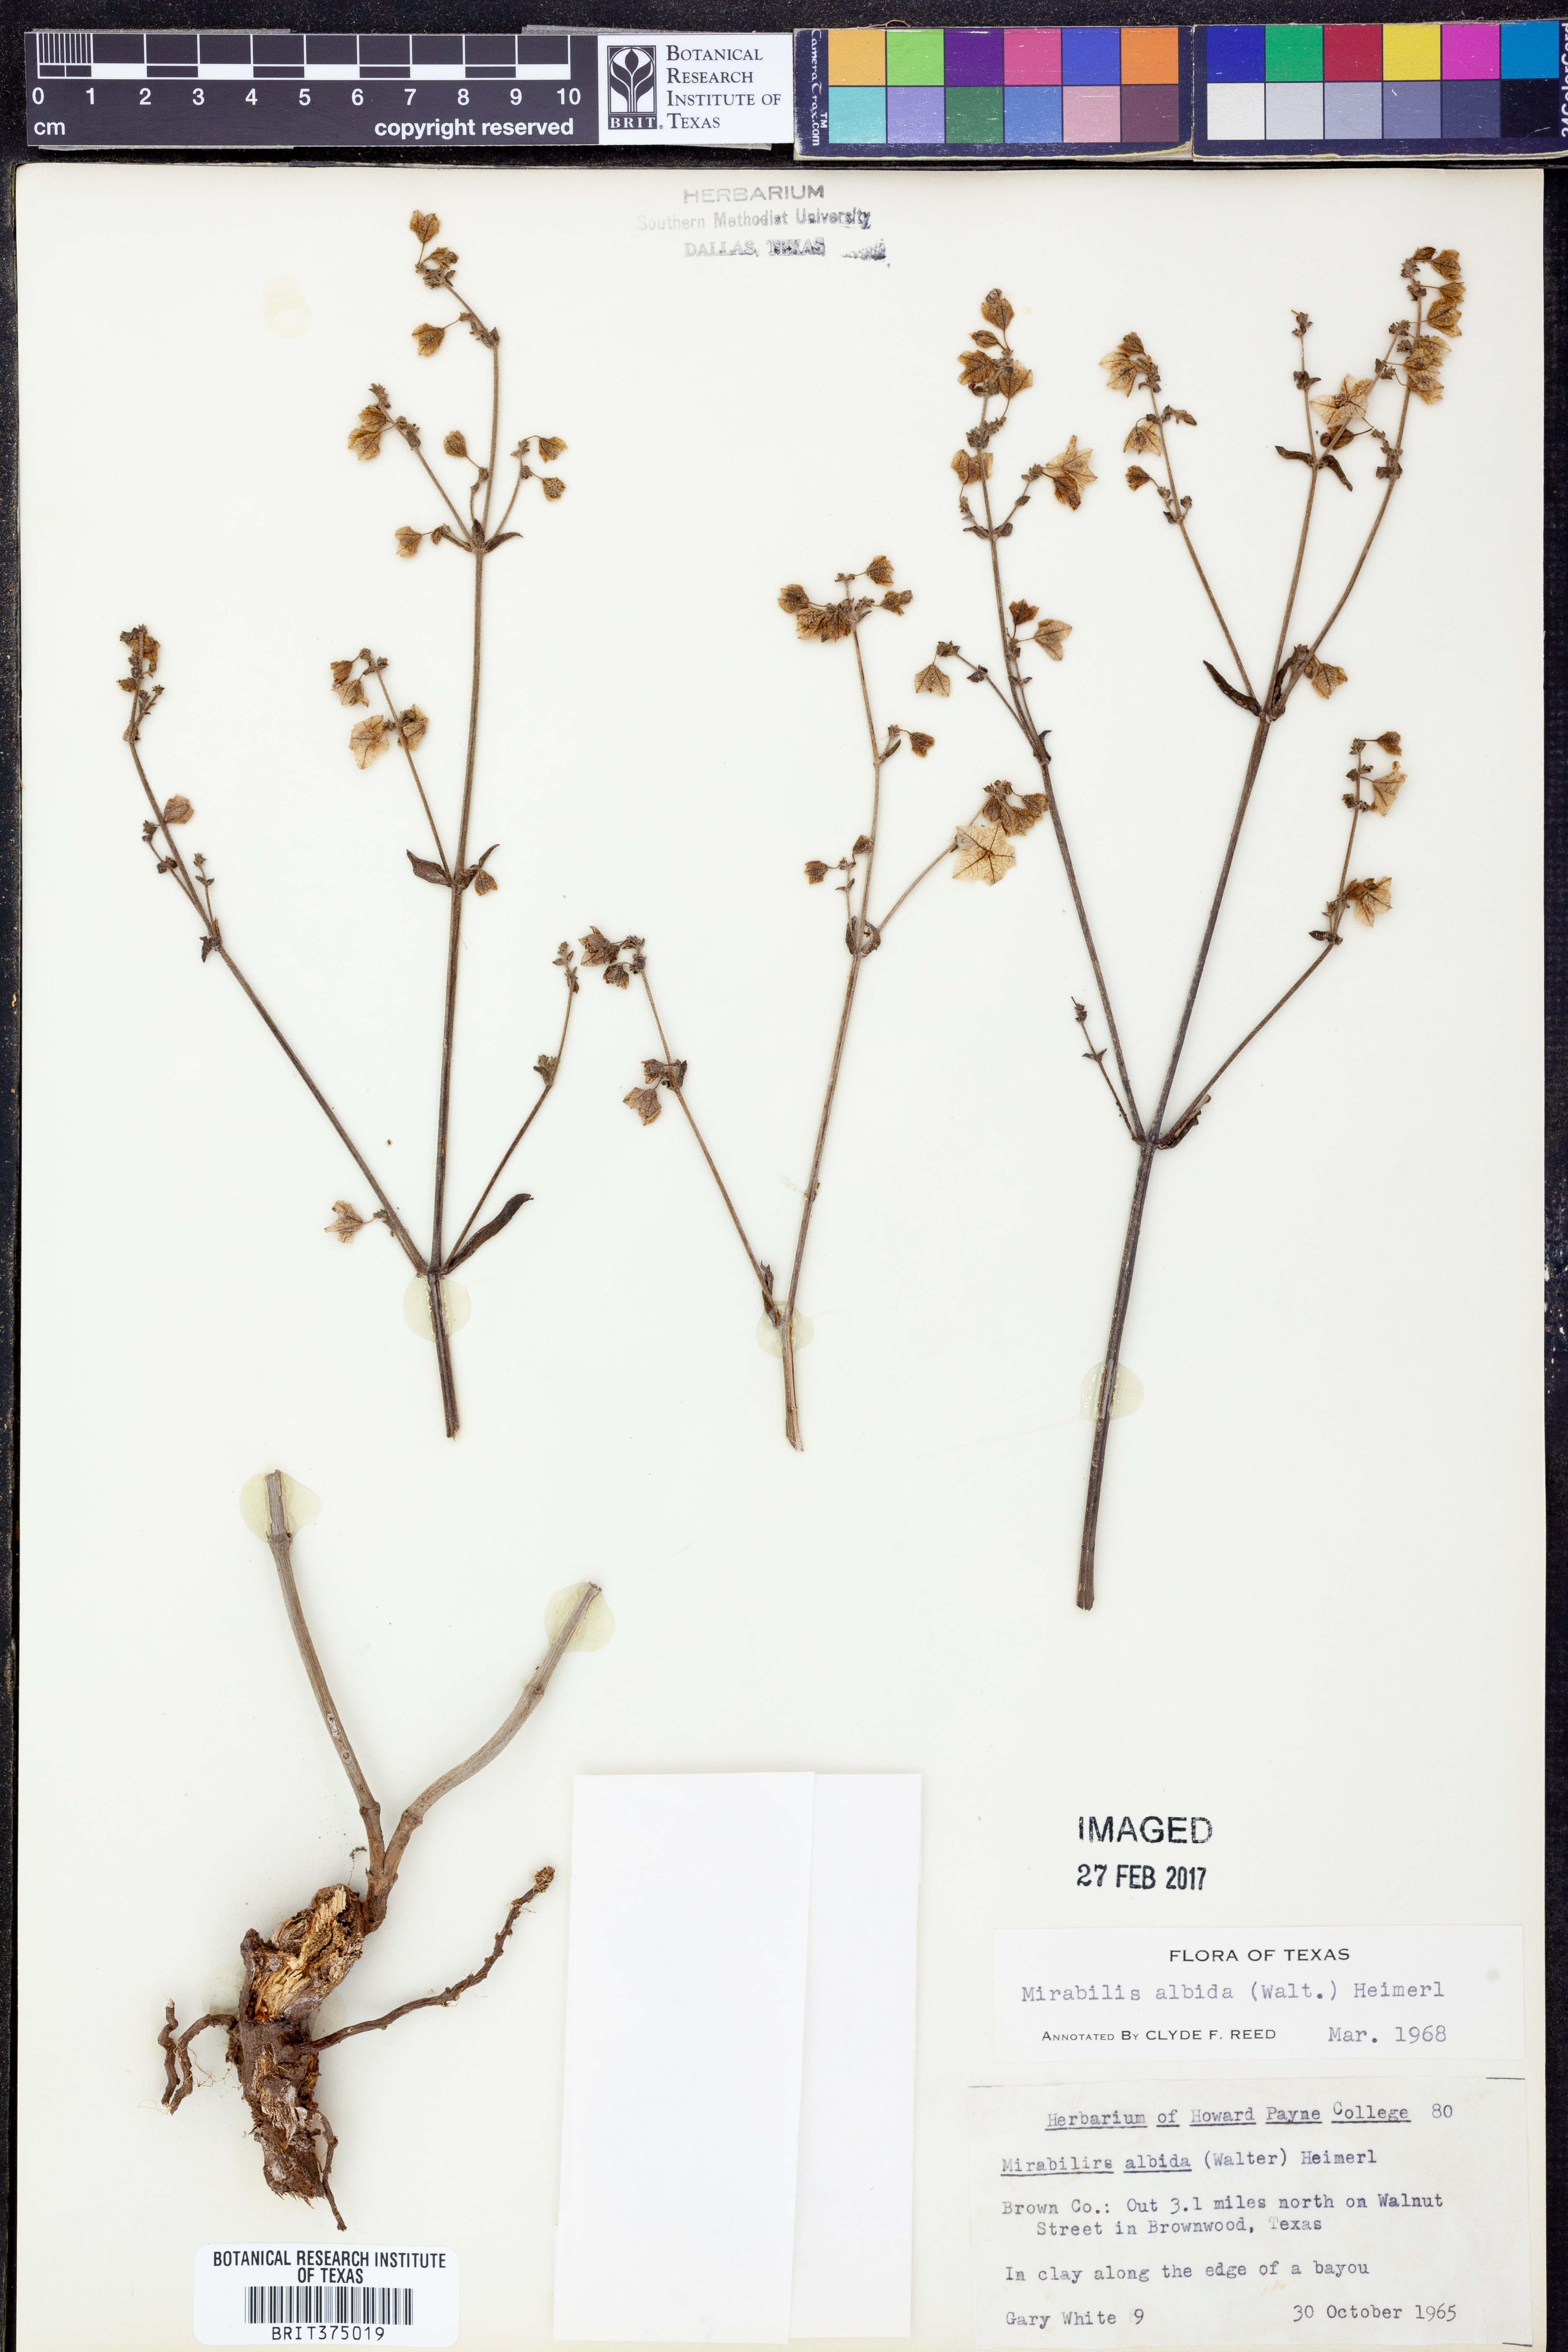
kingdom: Plantae
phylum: Tracheophyta
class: Magnoliopsida
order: Caryophyllales
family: Nyctaginaceae
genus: Mirabilis
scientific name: Mirabilis albida
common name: Hairy four-o'clock
